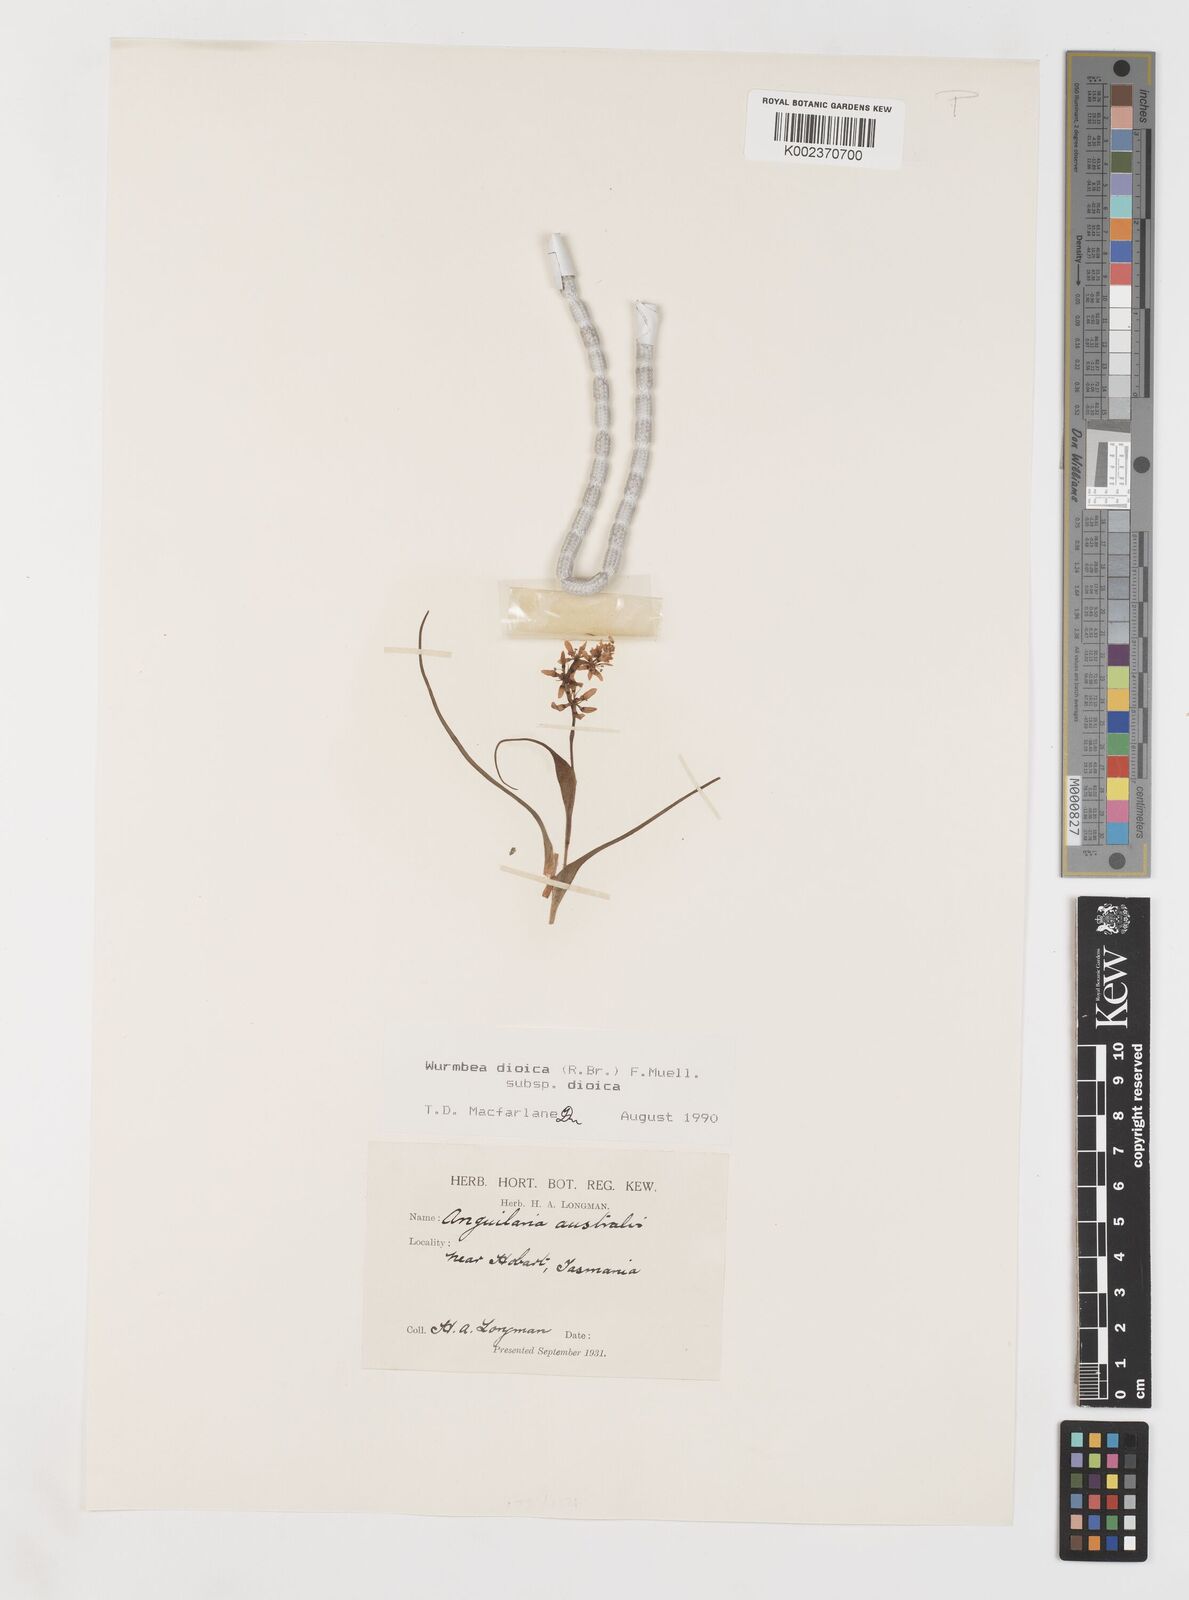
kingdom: Plantae
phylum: Tracheophyta
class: Liliopsida
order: Liliales
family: Colchicaceae
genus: Wurmbea
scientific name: Wurmbea dioica
